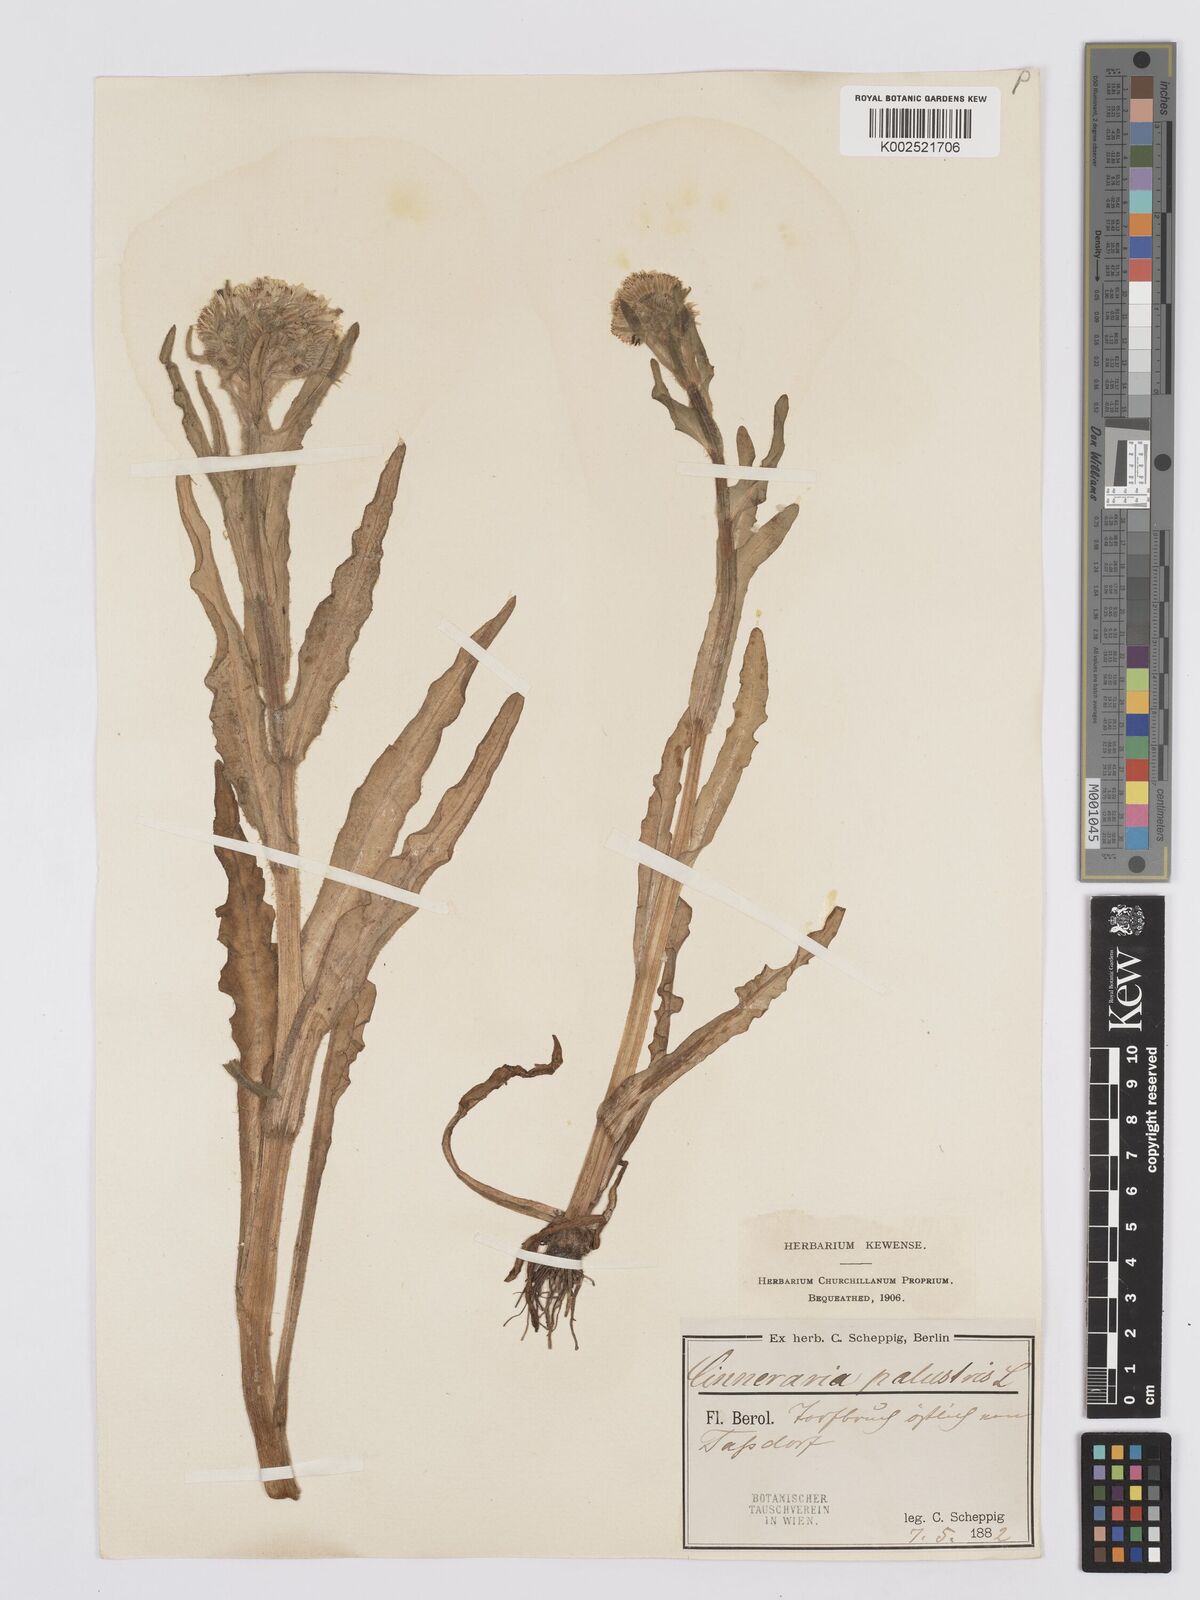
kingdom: Plantae
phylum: Tracheophyta
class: Magnoliopsida
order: Asterales
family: Asteraceae
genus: Tephroseris
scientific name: Tephroseris palustris
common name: Marsh fleawort
